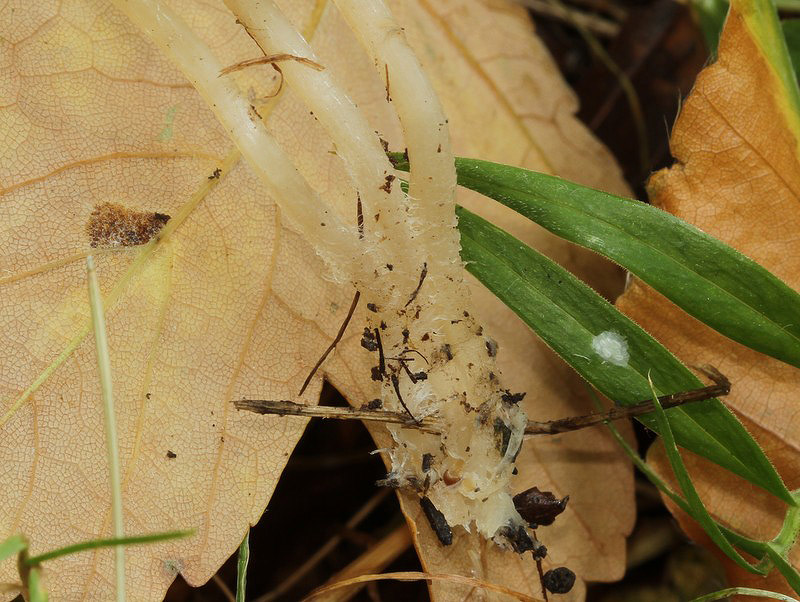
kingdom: Fungi
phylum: Basidiomycota
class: Agaricomycetes
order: Agaricales
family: Psathyrellaceae
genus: Psathyrella
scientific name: Psathyrella corrugis
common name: rødægget mørkhat
